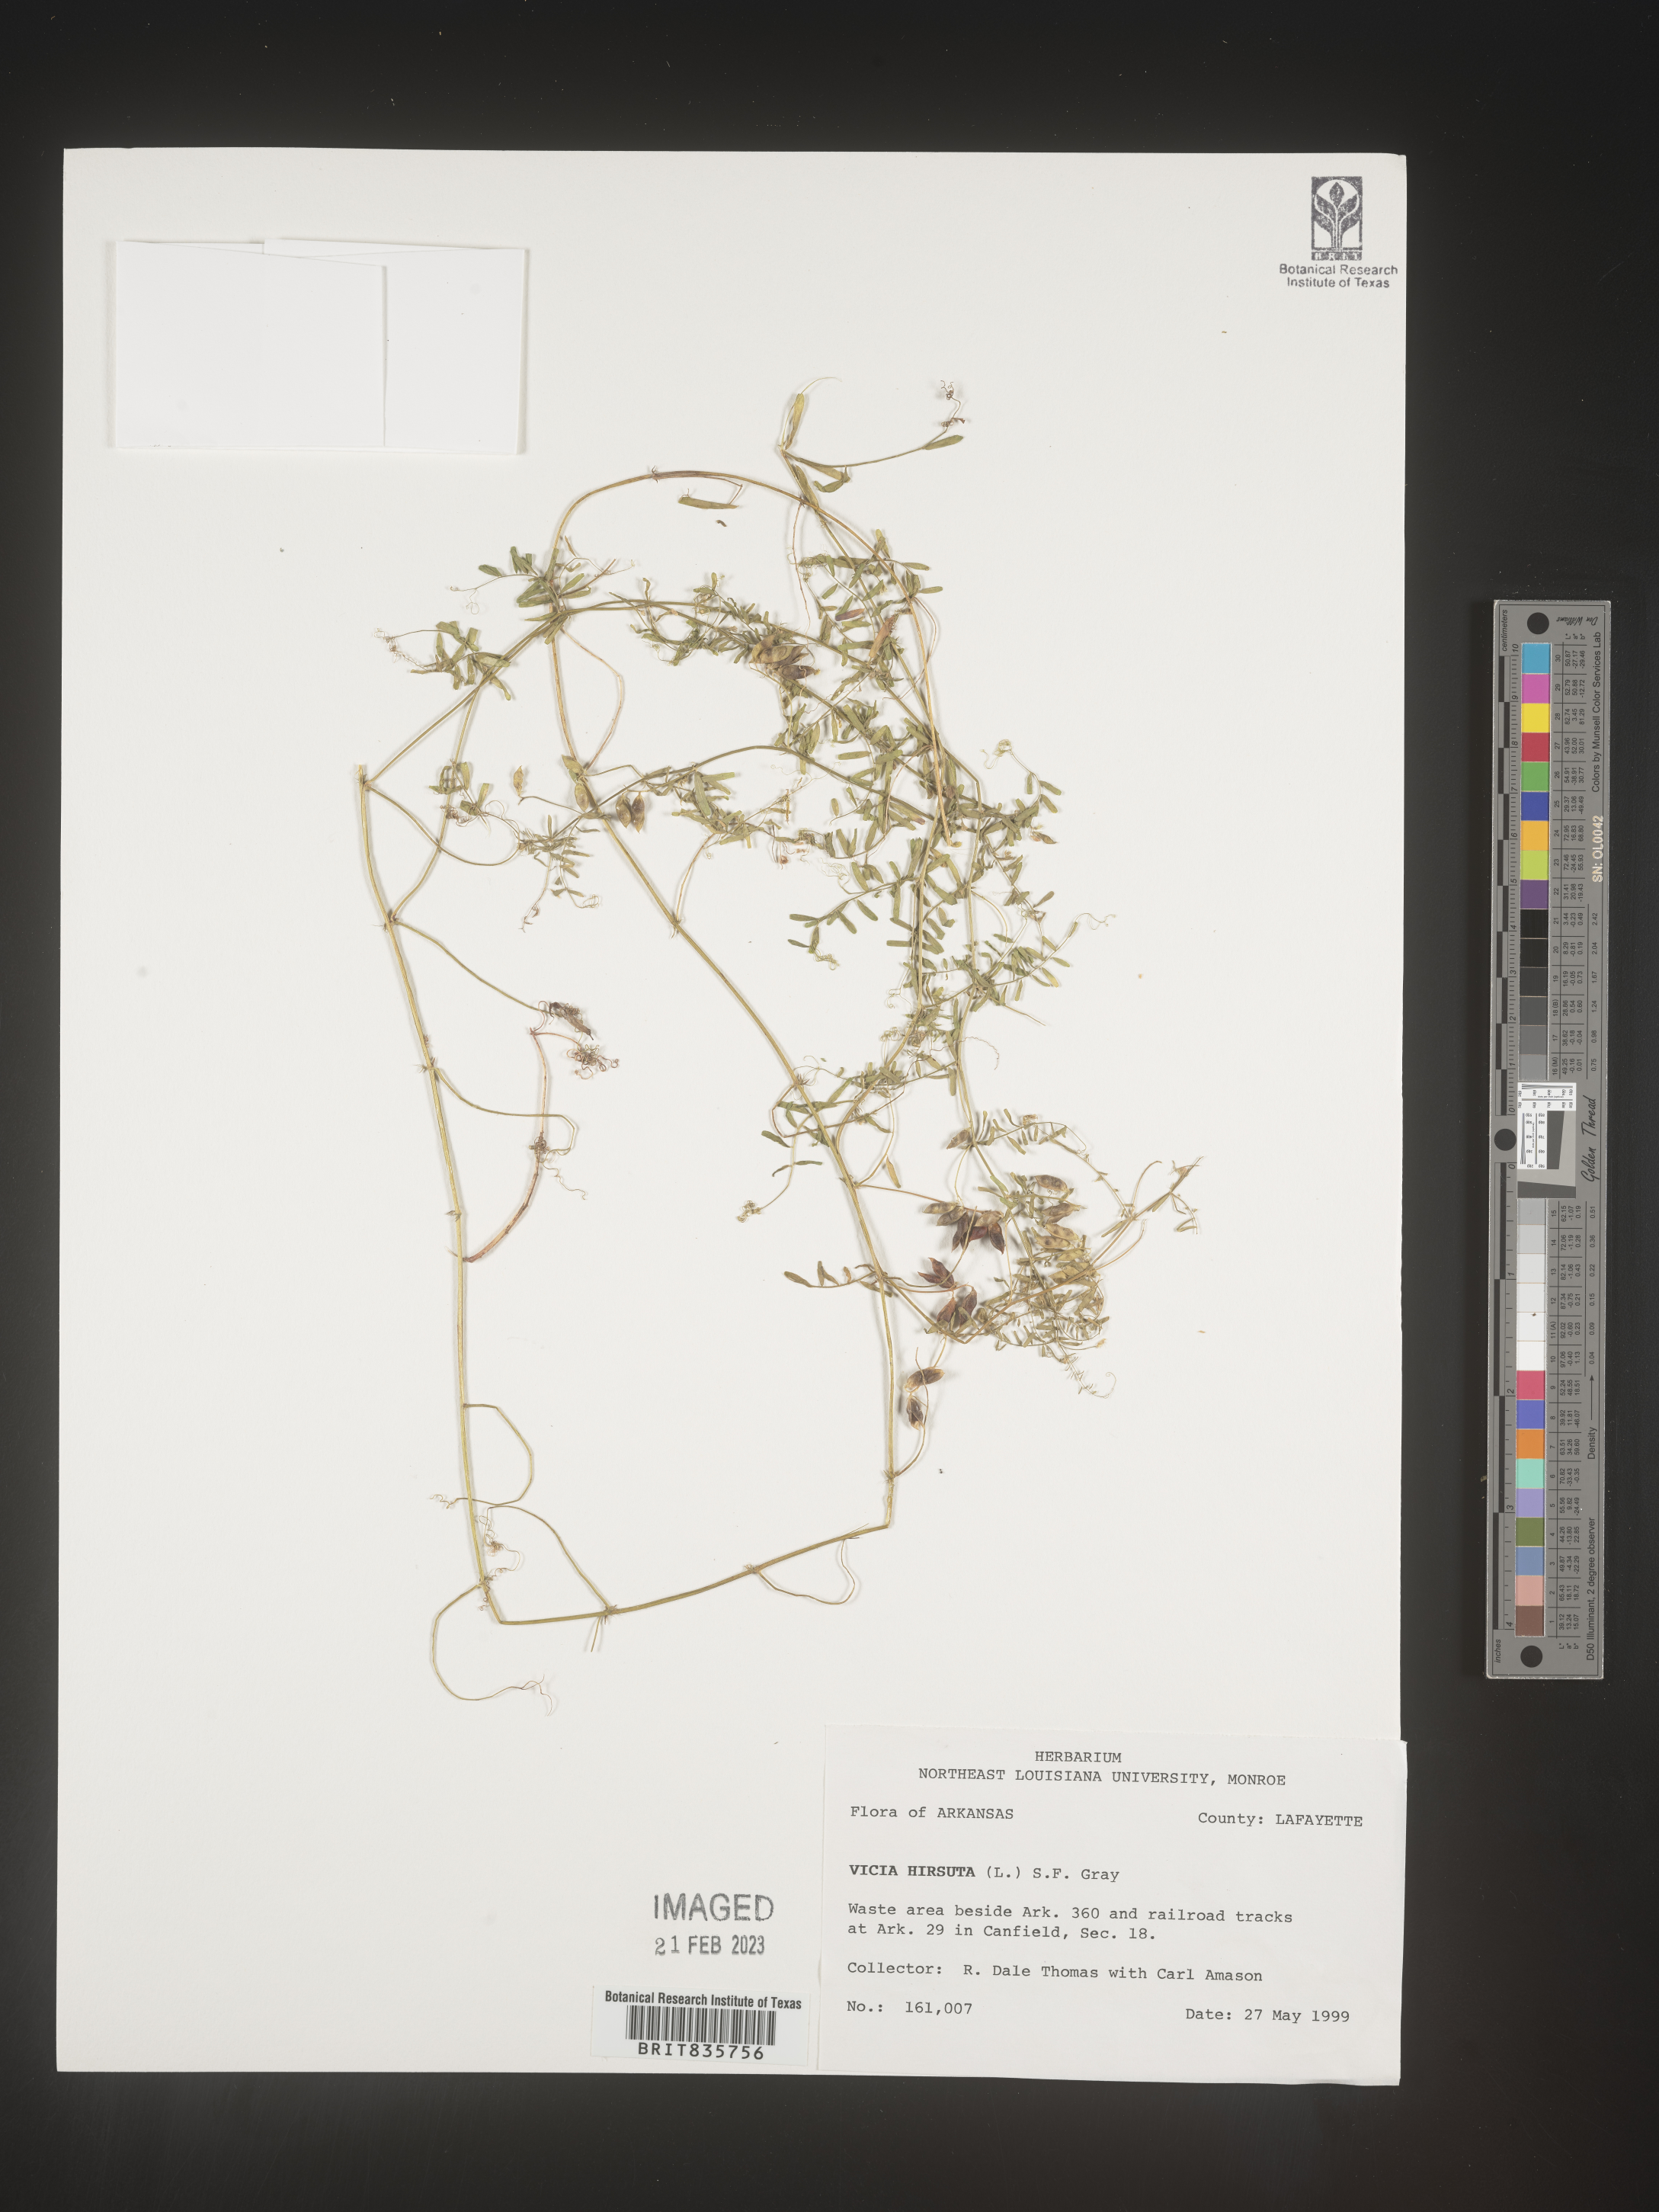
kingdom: Plantae
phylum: Tracheophyta
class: Magnoliopsida
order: Fabales
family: Fabaceae
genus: Vicia
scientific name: Vicia
